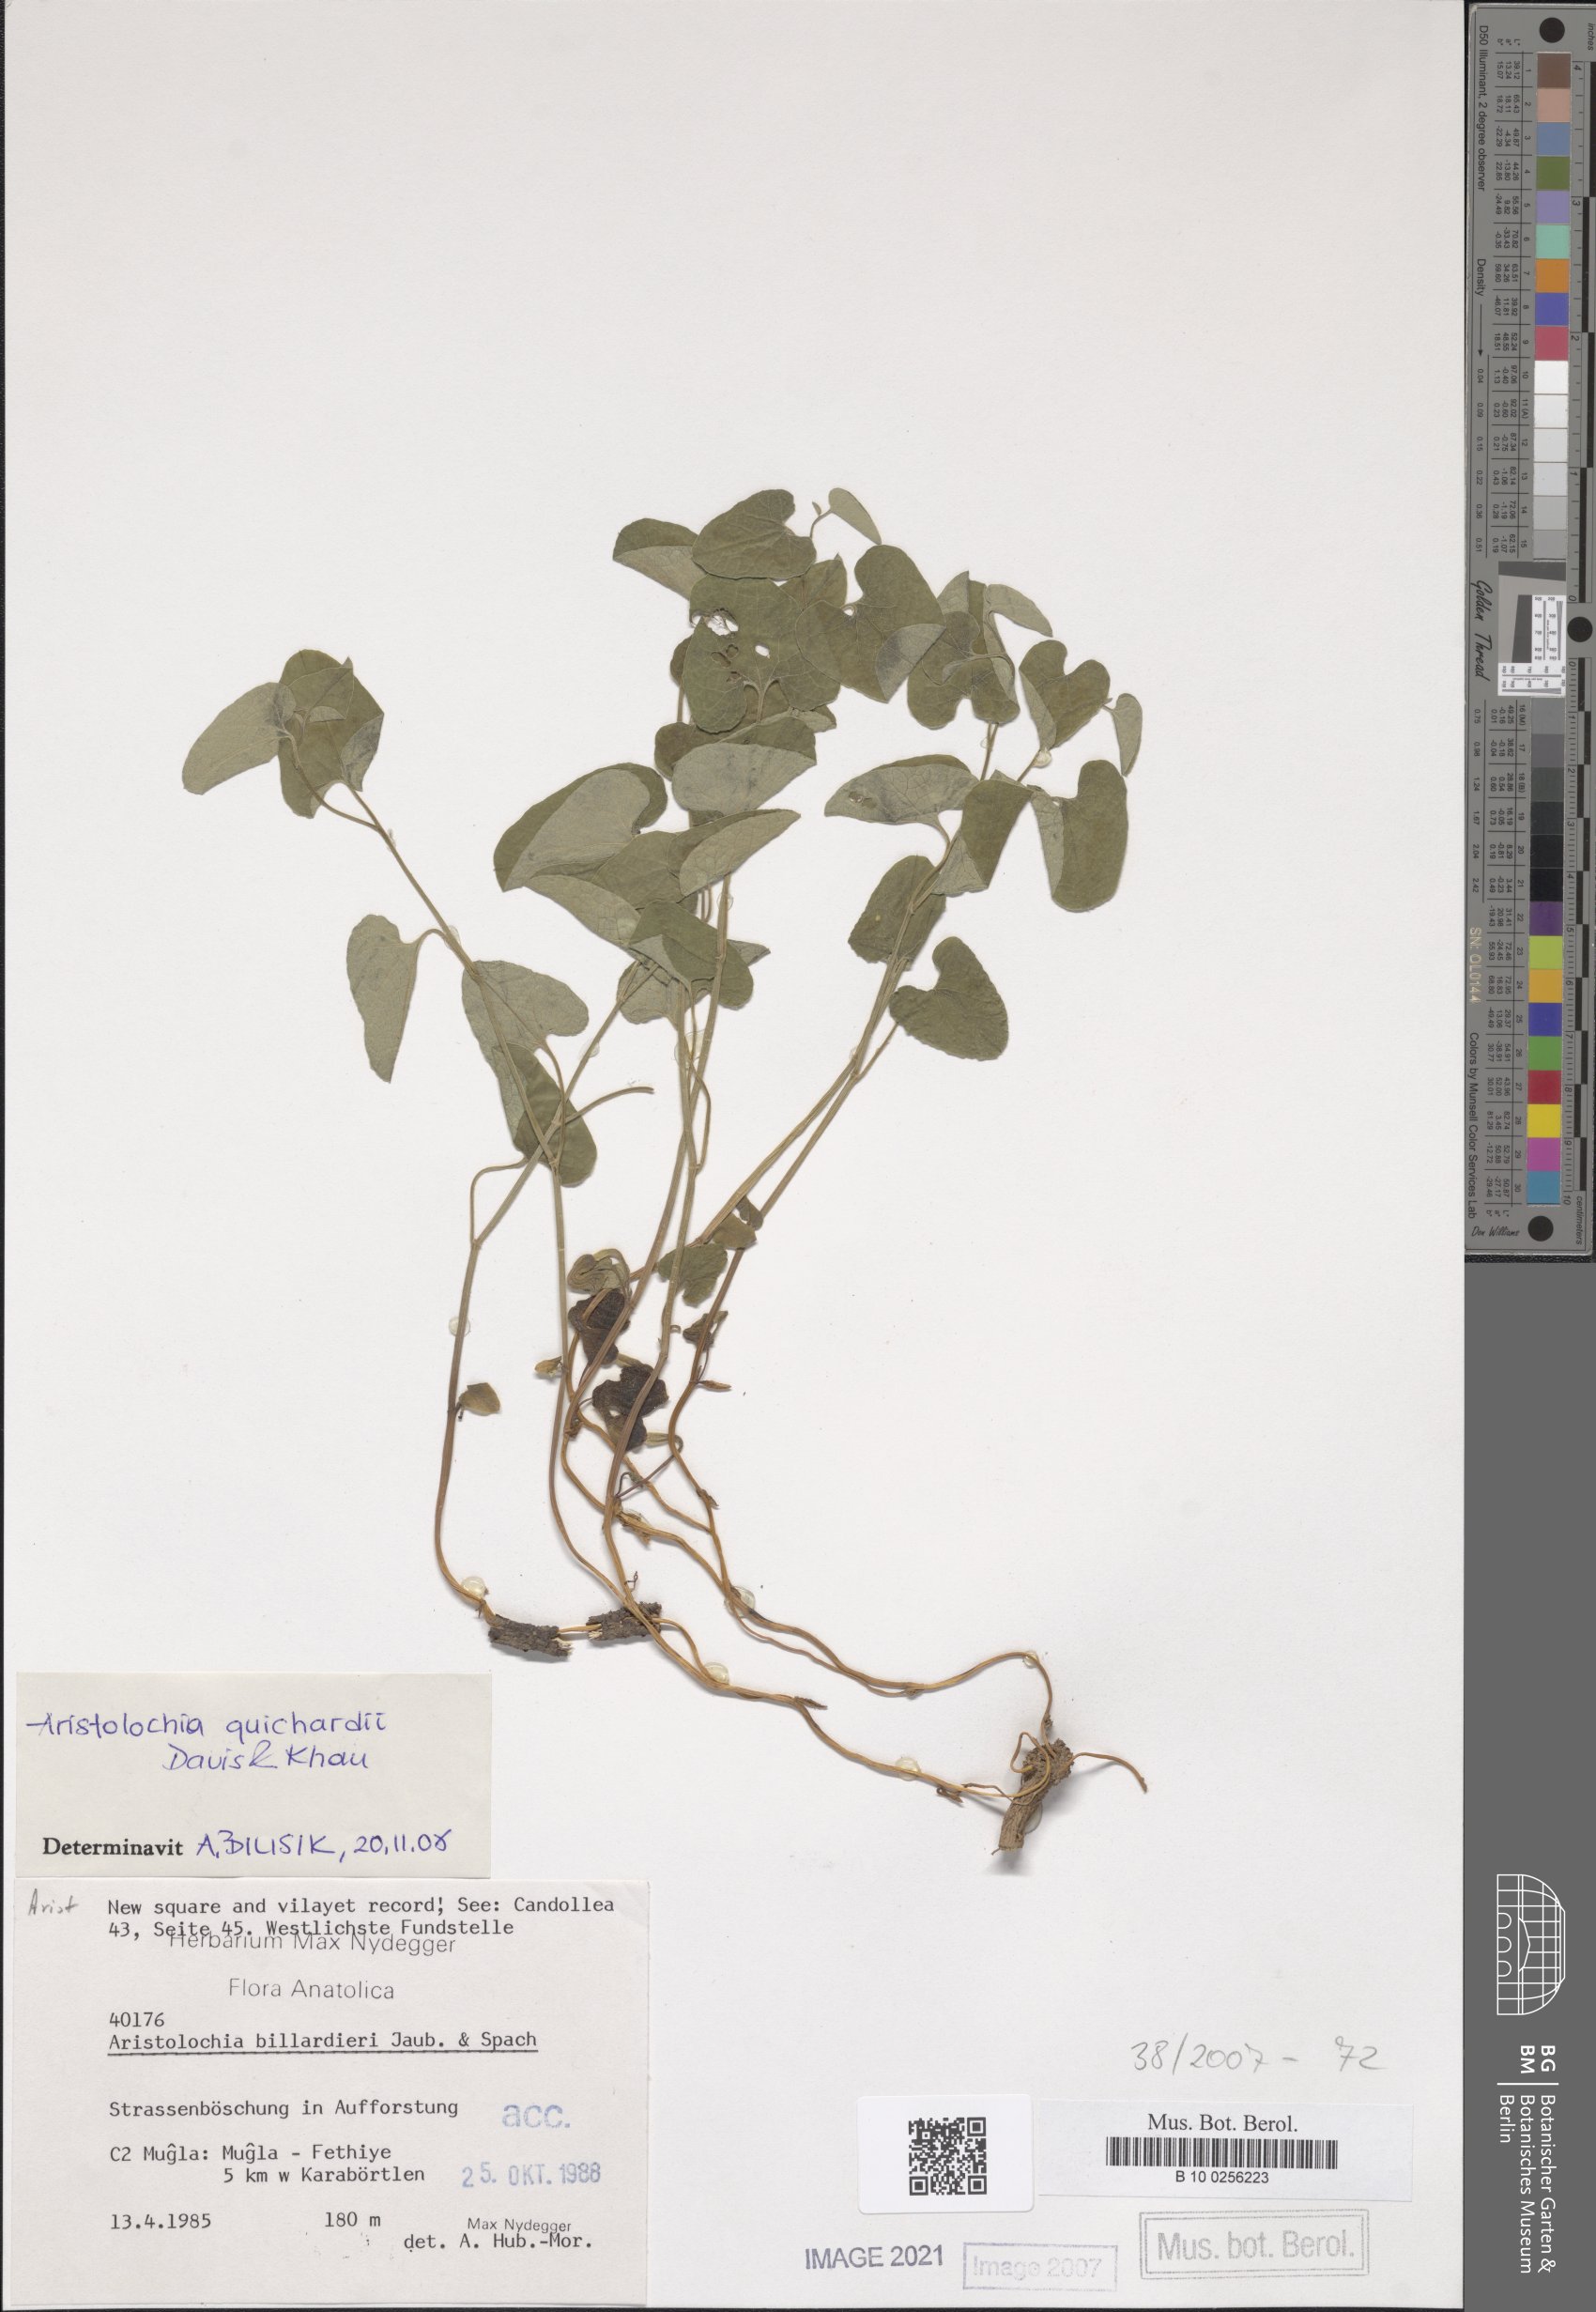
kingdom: Plantae
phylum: Tracheophyta
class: Magnoliopsida
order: Piperales
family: Aristolochiaceae
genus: Aristolochia
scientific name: Aristolochia
